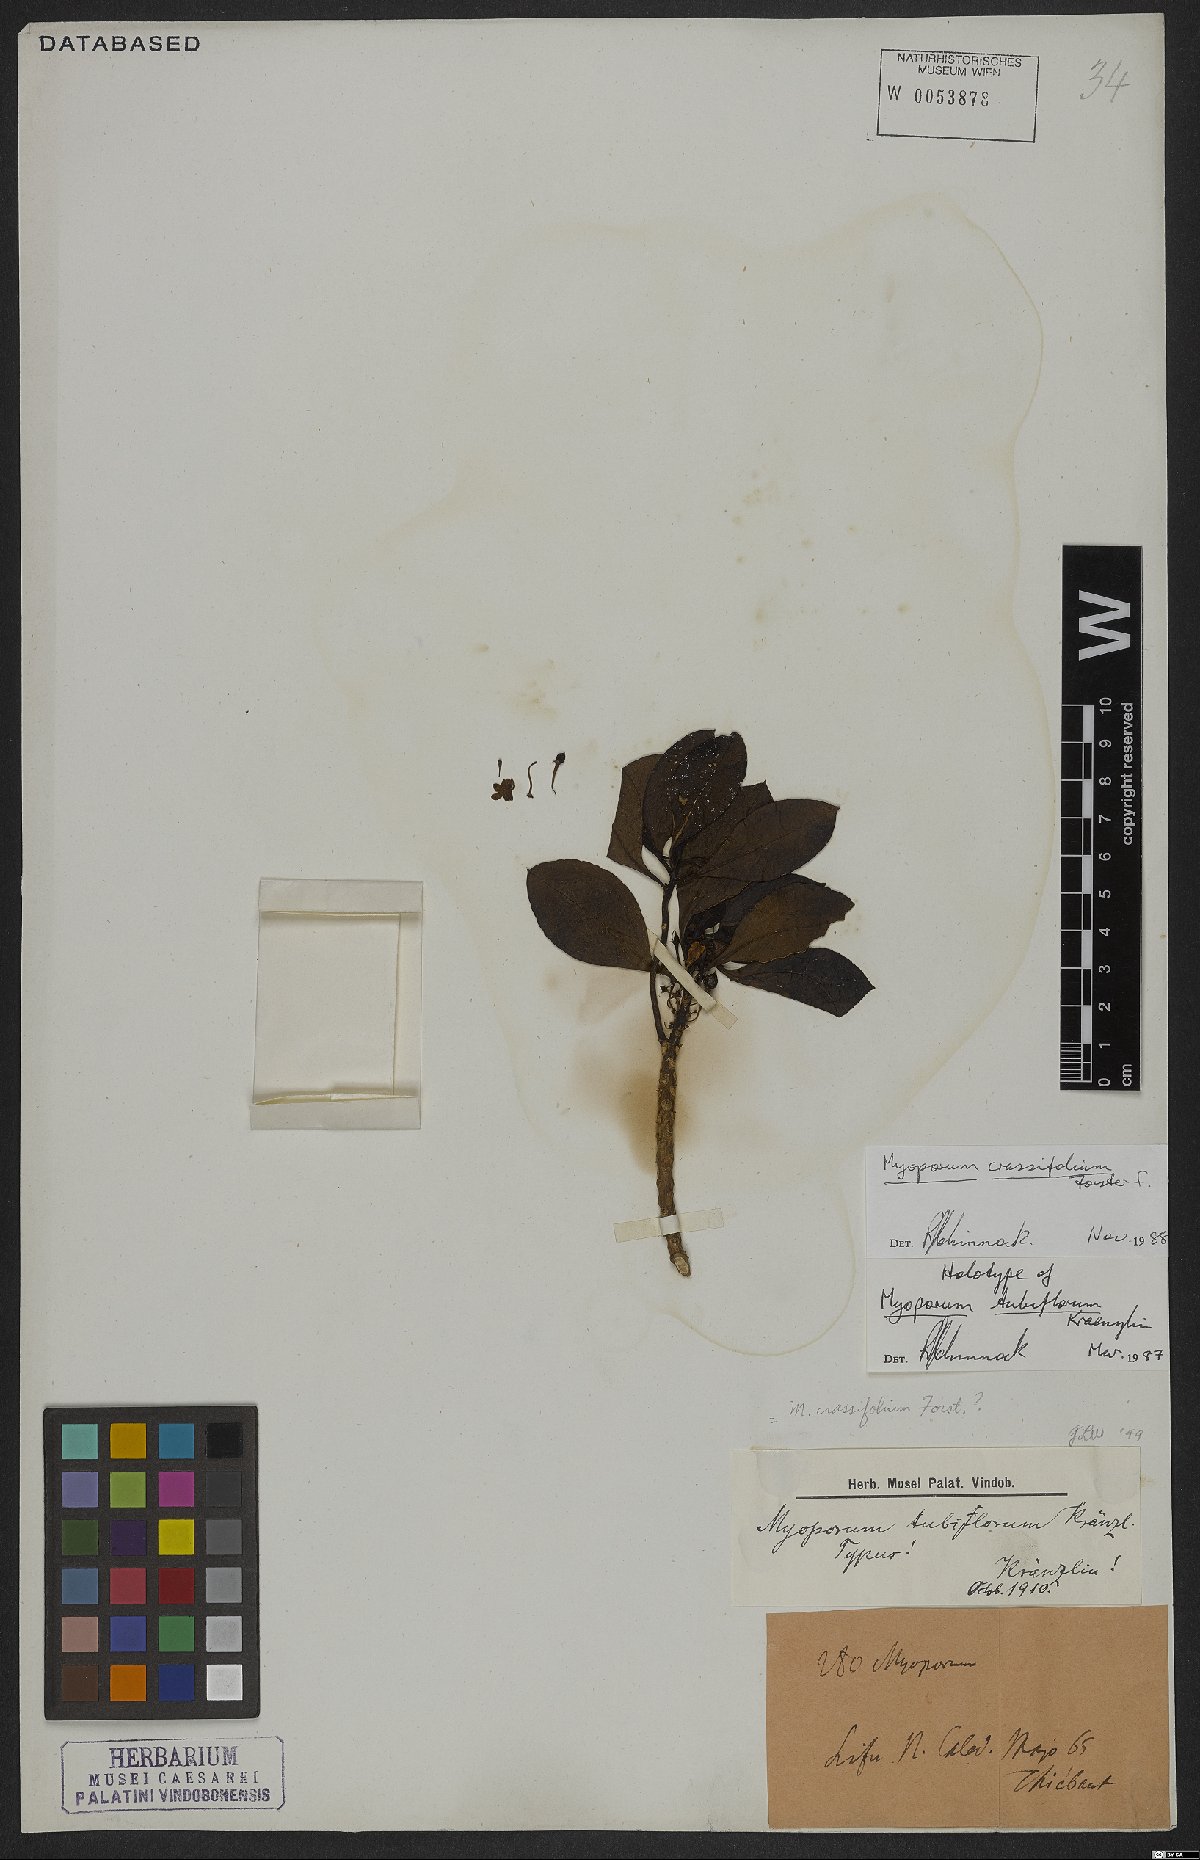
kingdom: Plantae
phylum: Tracheophyta
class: Magnoliopsida
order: Lamiales
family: Scrophulariaceae
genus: Myoporum
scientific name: Myoporum crassifolium
